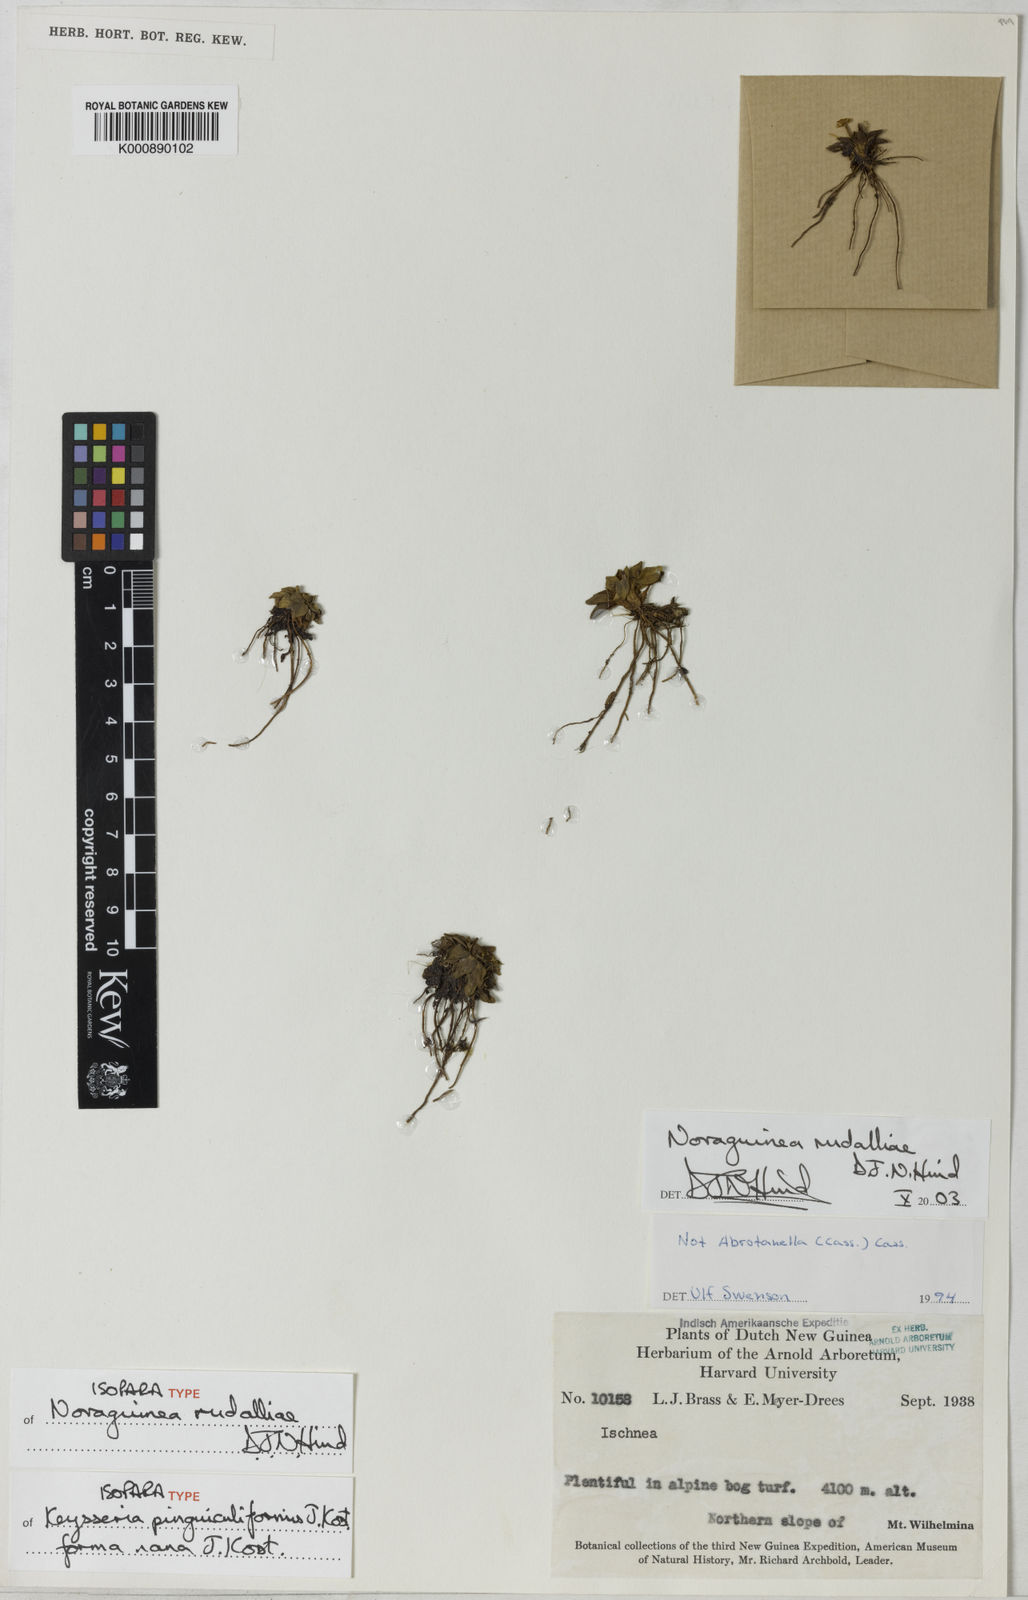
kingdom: Plantae
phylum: Tracheophyta
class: Magnoliopsida
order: Asterales
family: Asteraceae
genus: Novaguinea
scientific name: Novaguinea rudalliae
